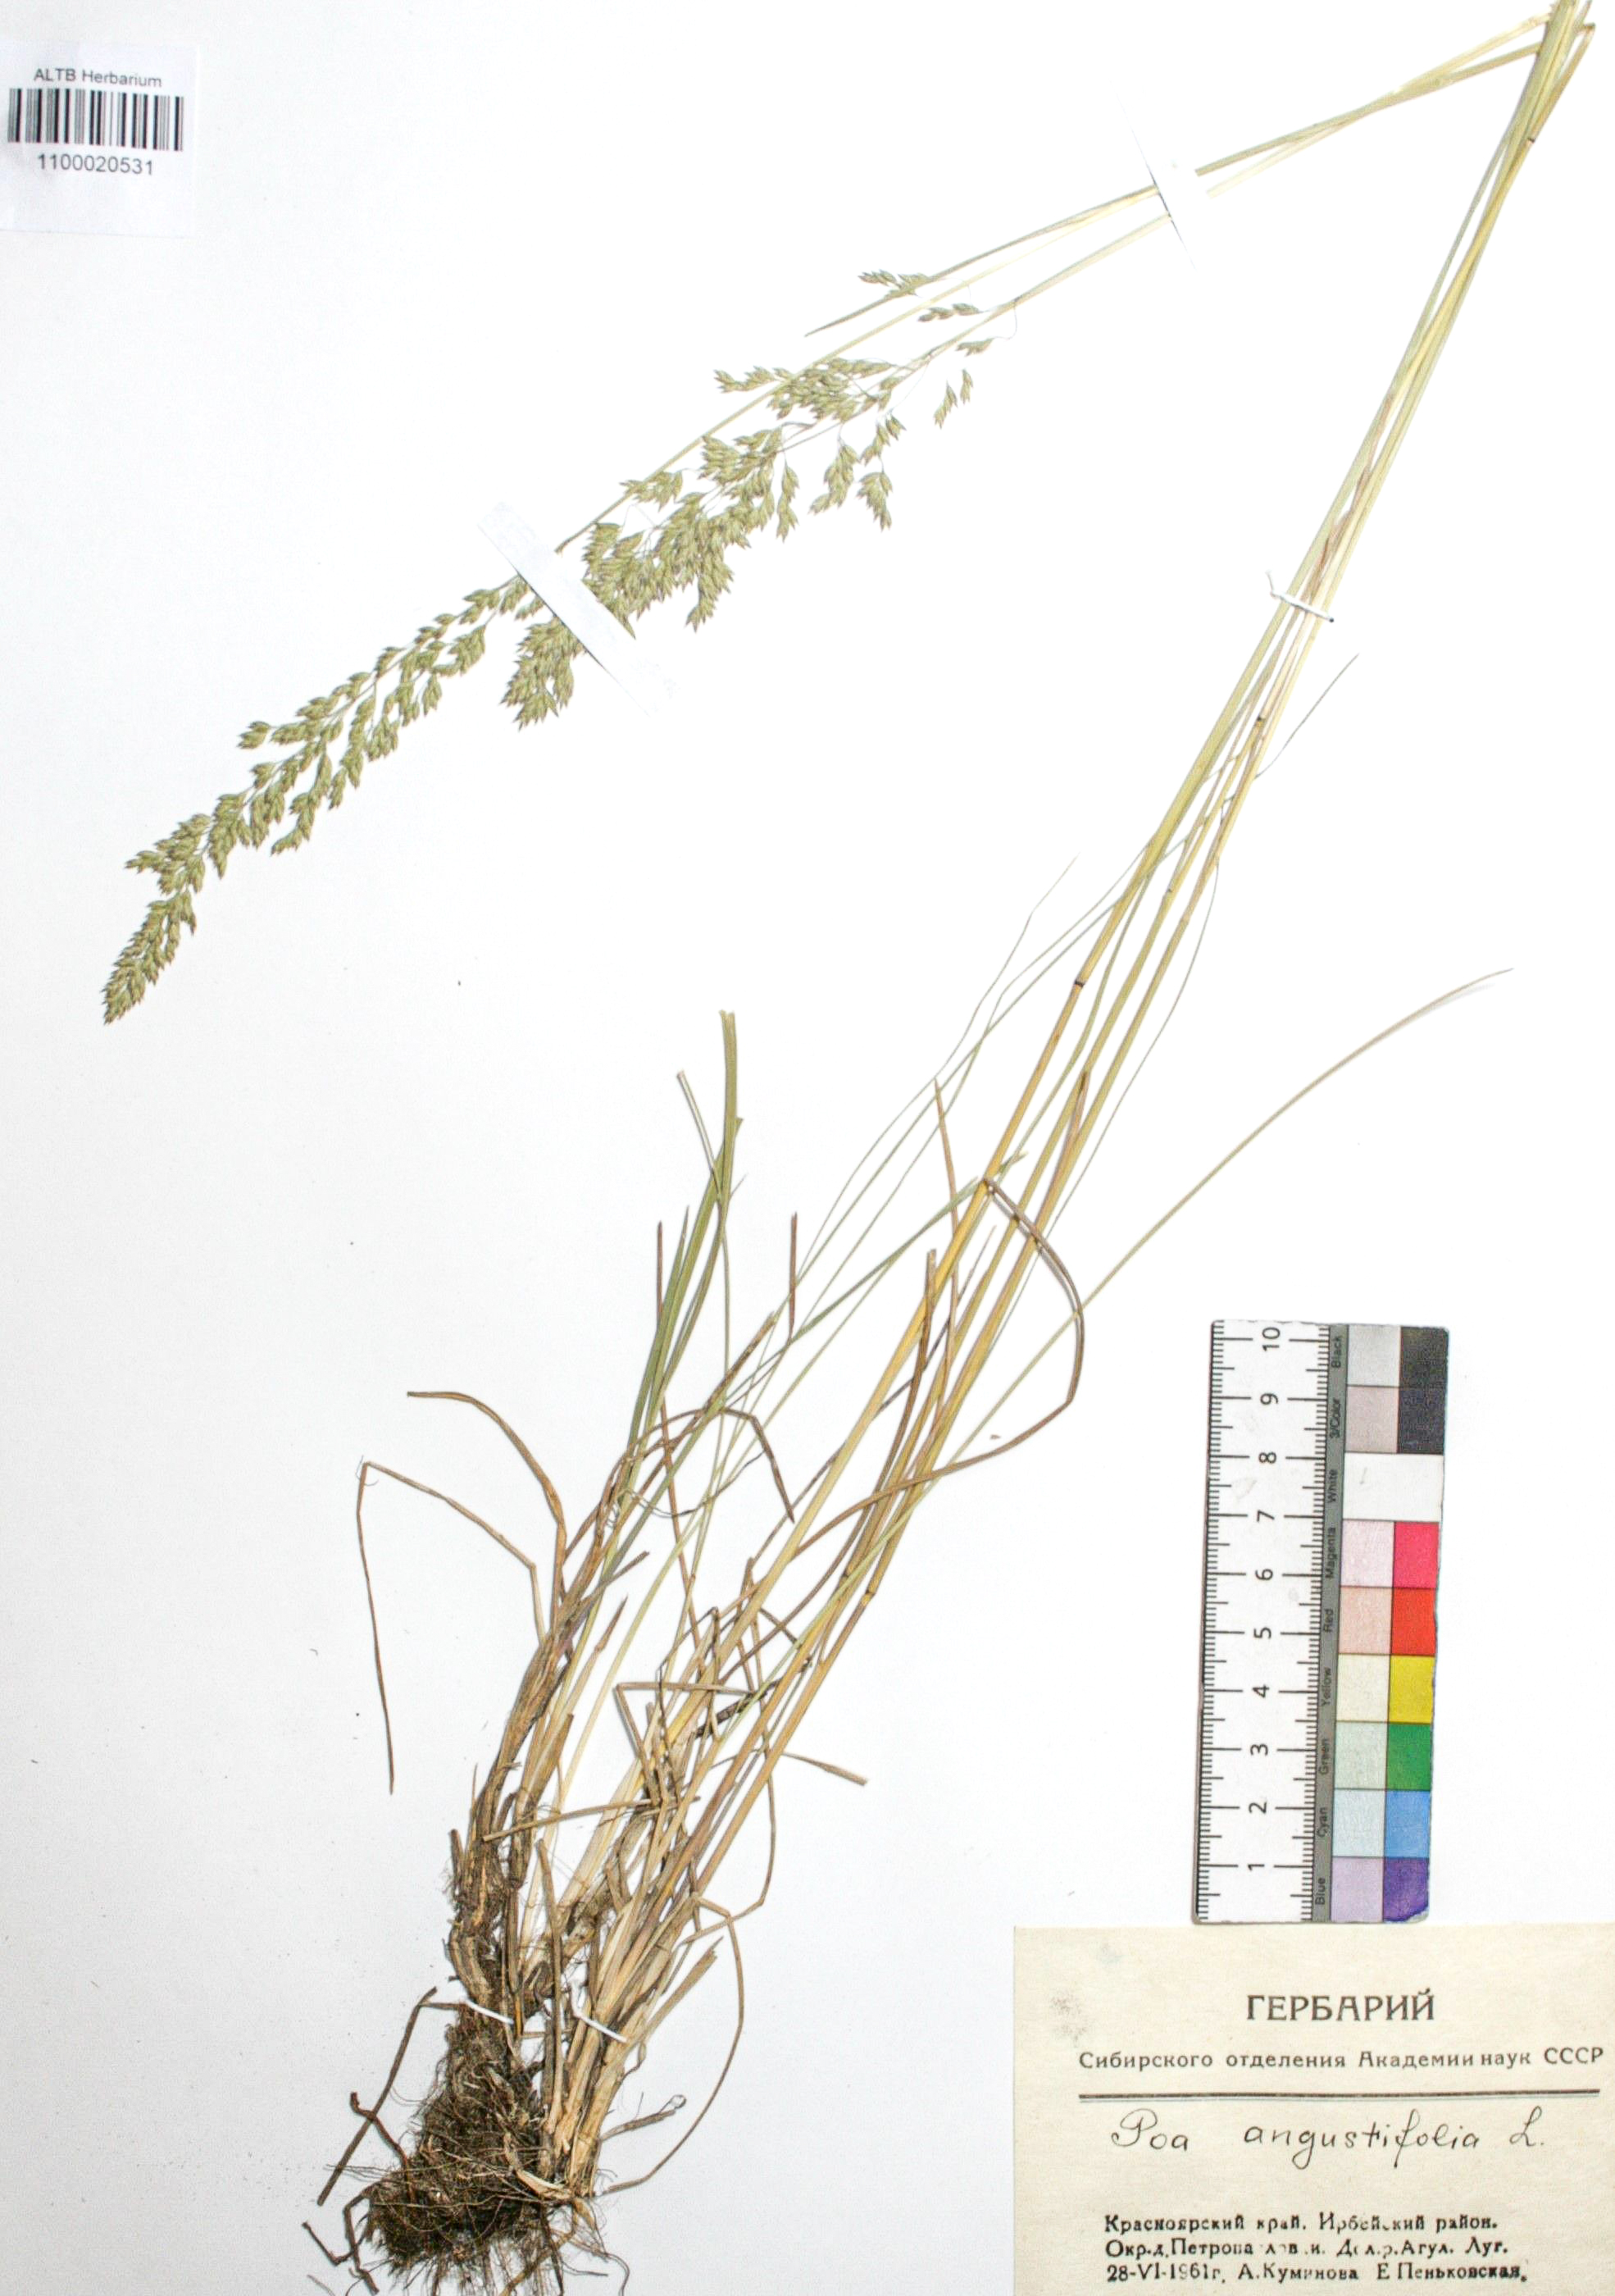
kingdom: Plantae
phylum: Tracheophyta
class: Liliopsida
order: Poales
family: Poaceae
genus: Poa
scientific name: Poa angustifolia
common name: Narrow-leaved meadow-grass
